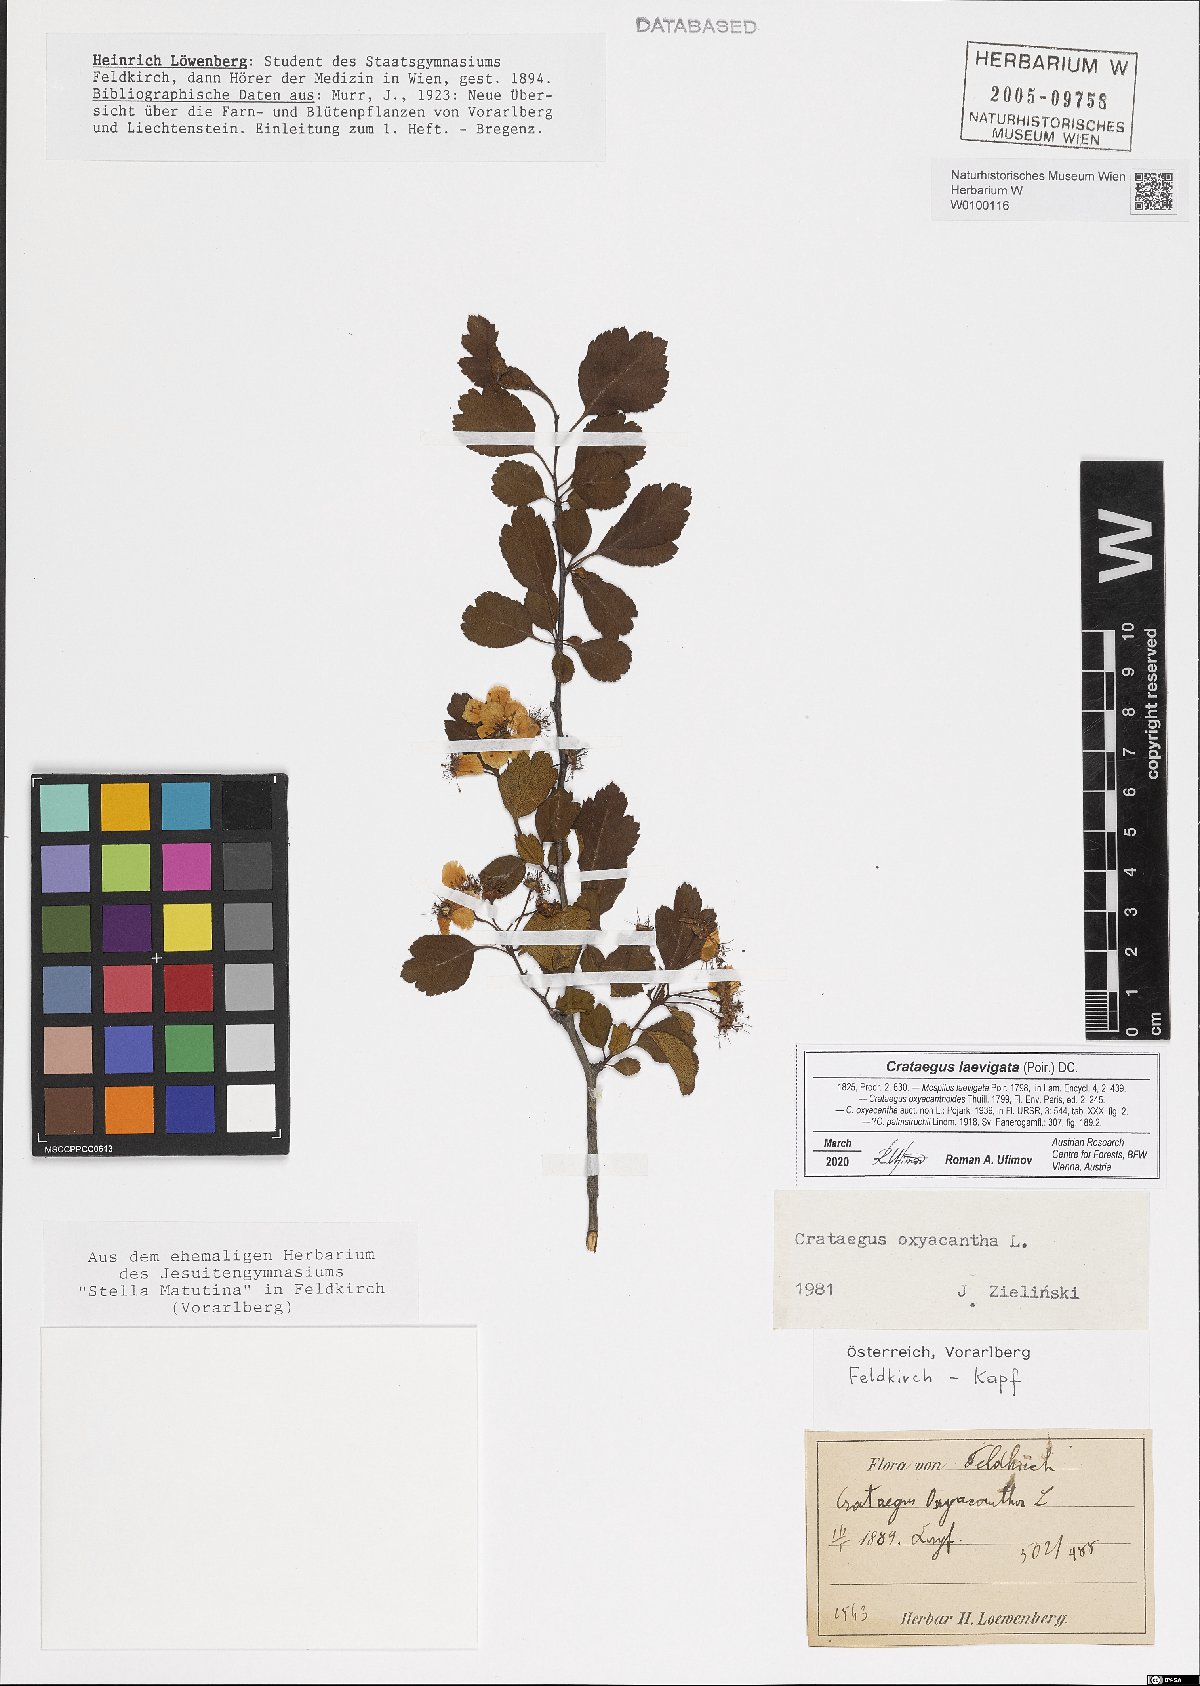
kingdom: Plantae
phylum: Tracheophyta
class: Magnoliopsida
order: Rosales
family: Rosaceae
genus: Crataegus
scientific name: Crataegus laevigata
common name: Midland hawthorn
